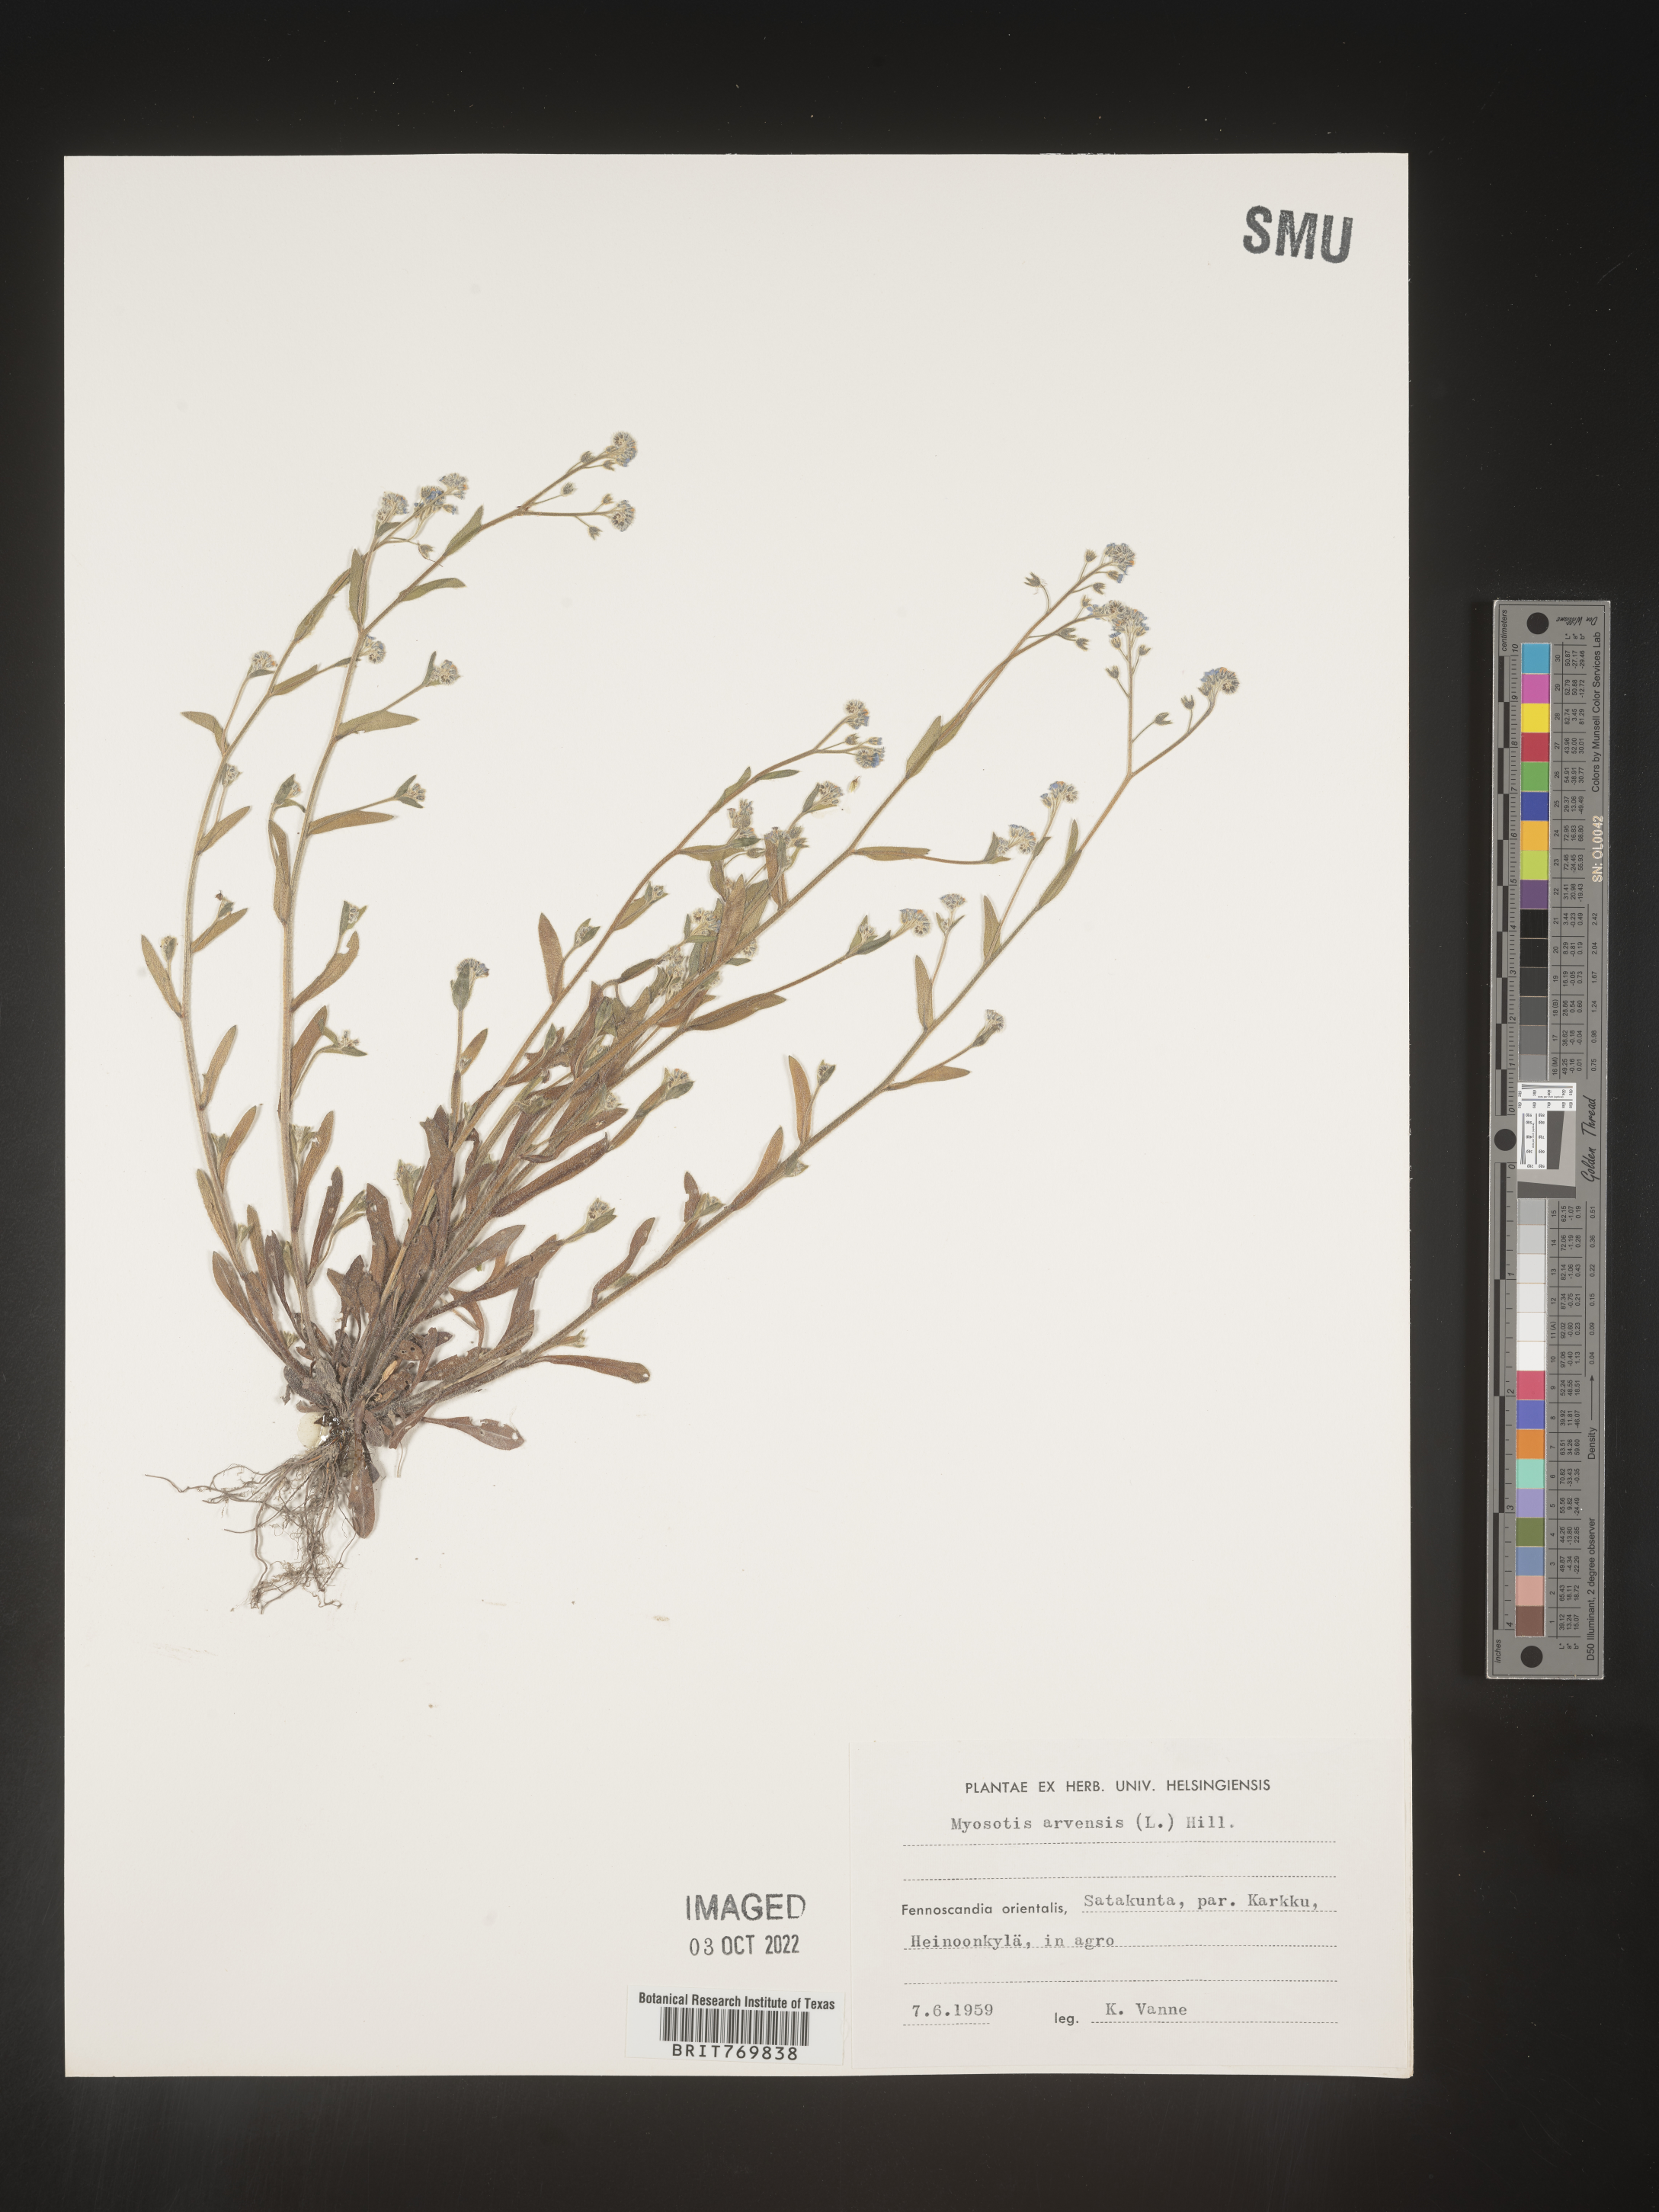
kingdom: Plantae
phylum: Tracheophyta
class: Magnoliopsida
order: Boraginales
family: Boraginaceae
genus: Myosotis
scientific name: Myosotis
